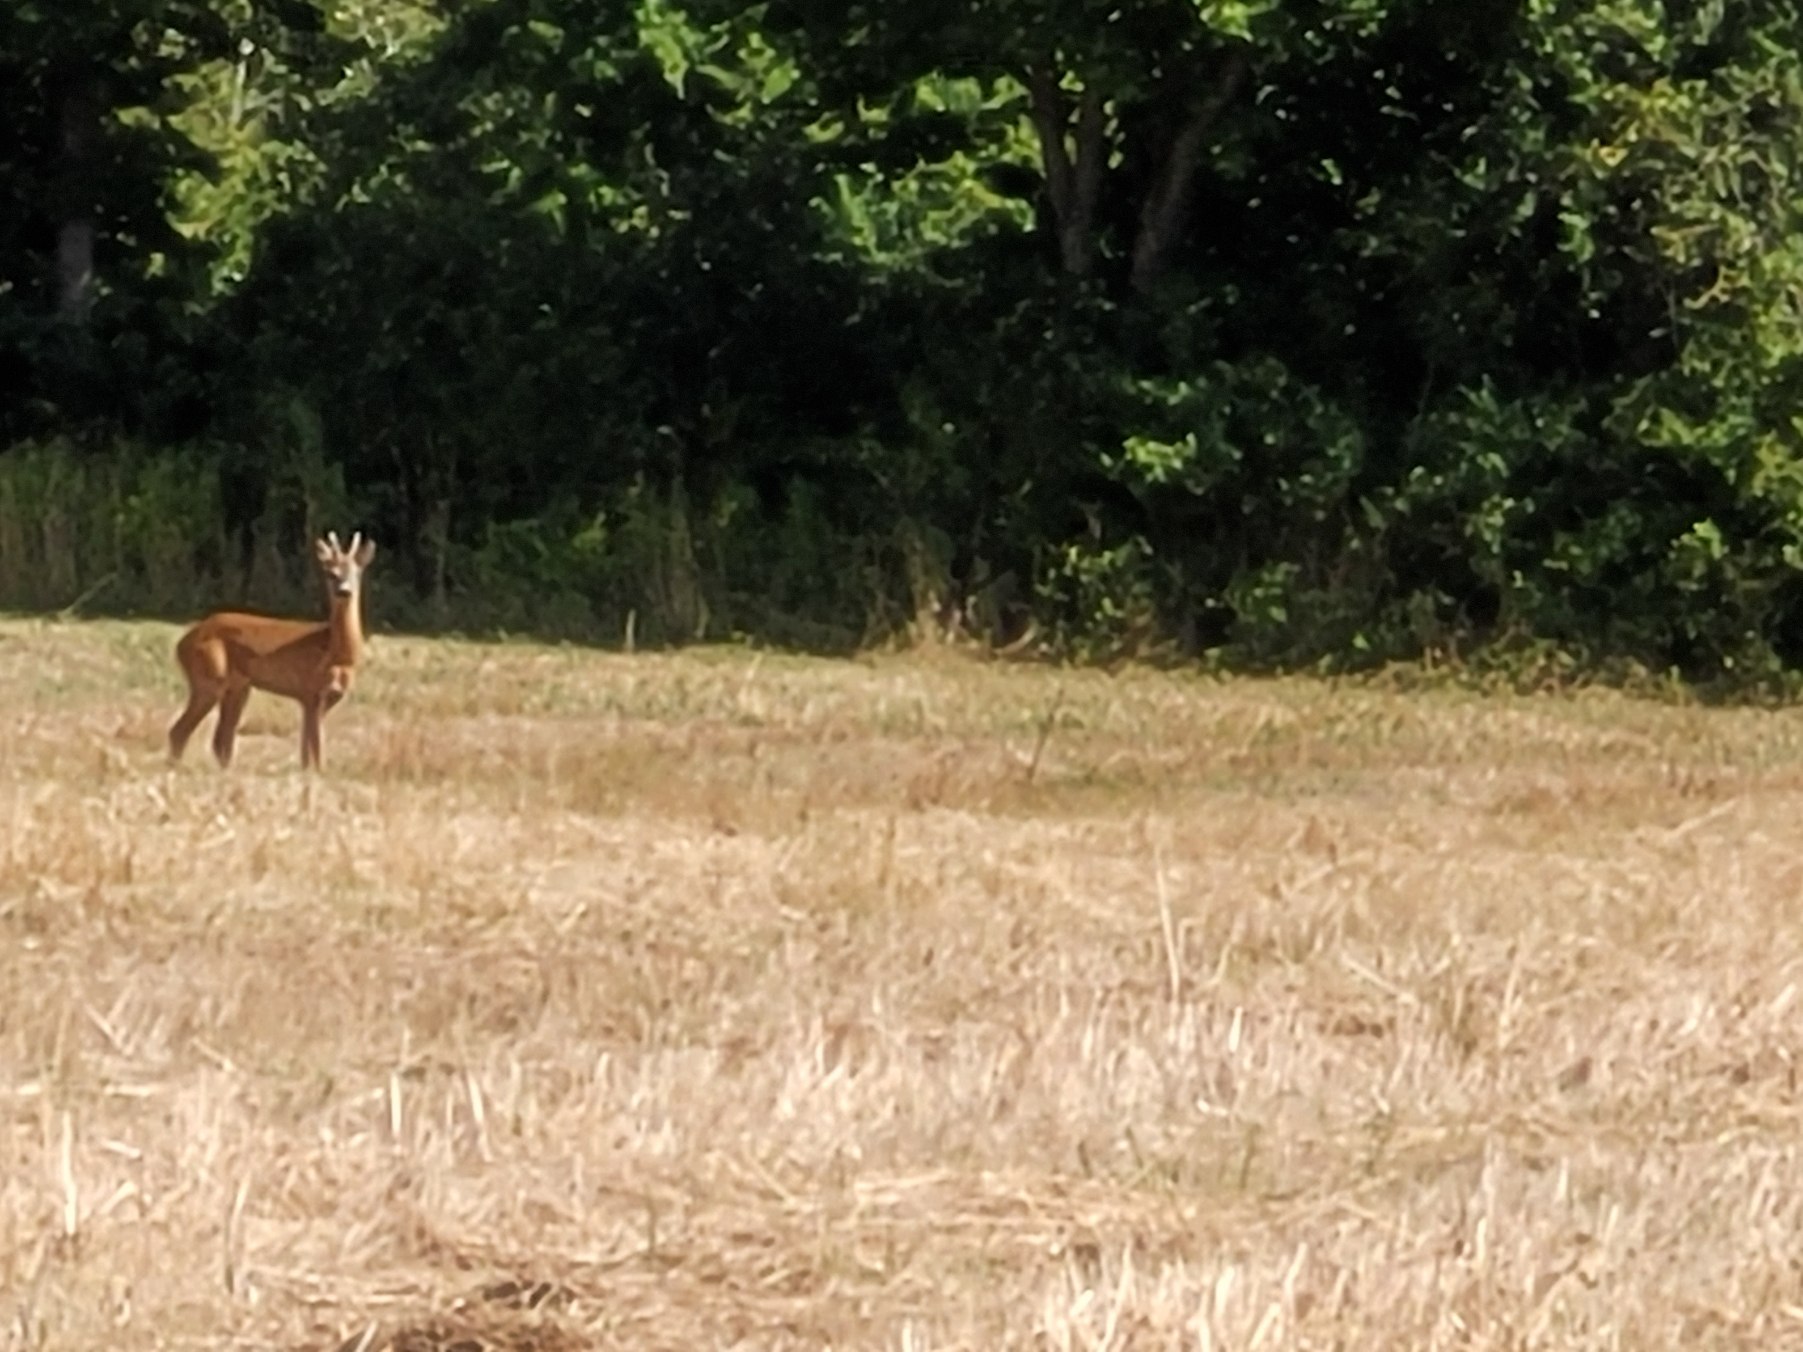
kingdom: Animalia
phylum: Chordata
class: Mammalia
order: Artiodactyla
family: Cervidae
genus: Capreolus
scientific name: Capreolus capreolus
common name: Rådyr
